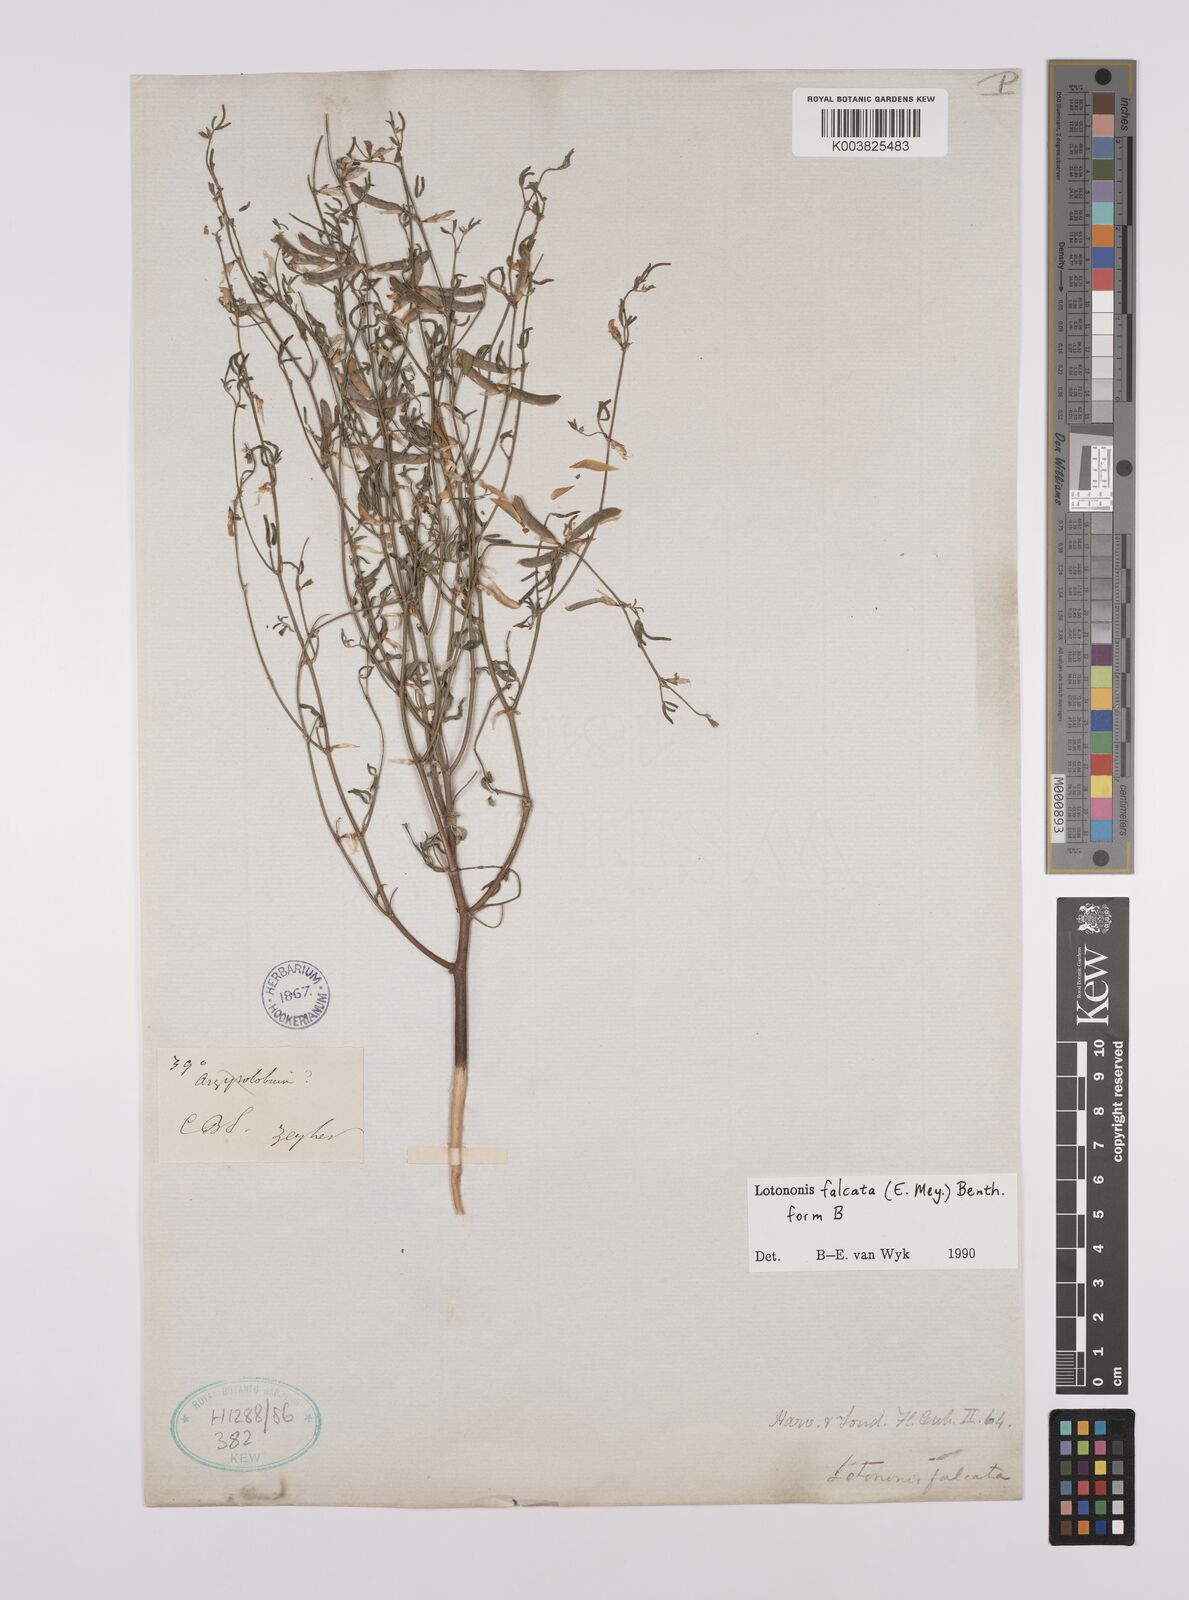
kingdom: Plantae
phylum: Tracheophyta
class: Magnoliopsida
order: Fabales
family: Fabaceae
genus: Lotononis
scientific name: Lotononis falcata
